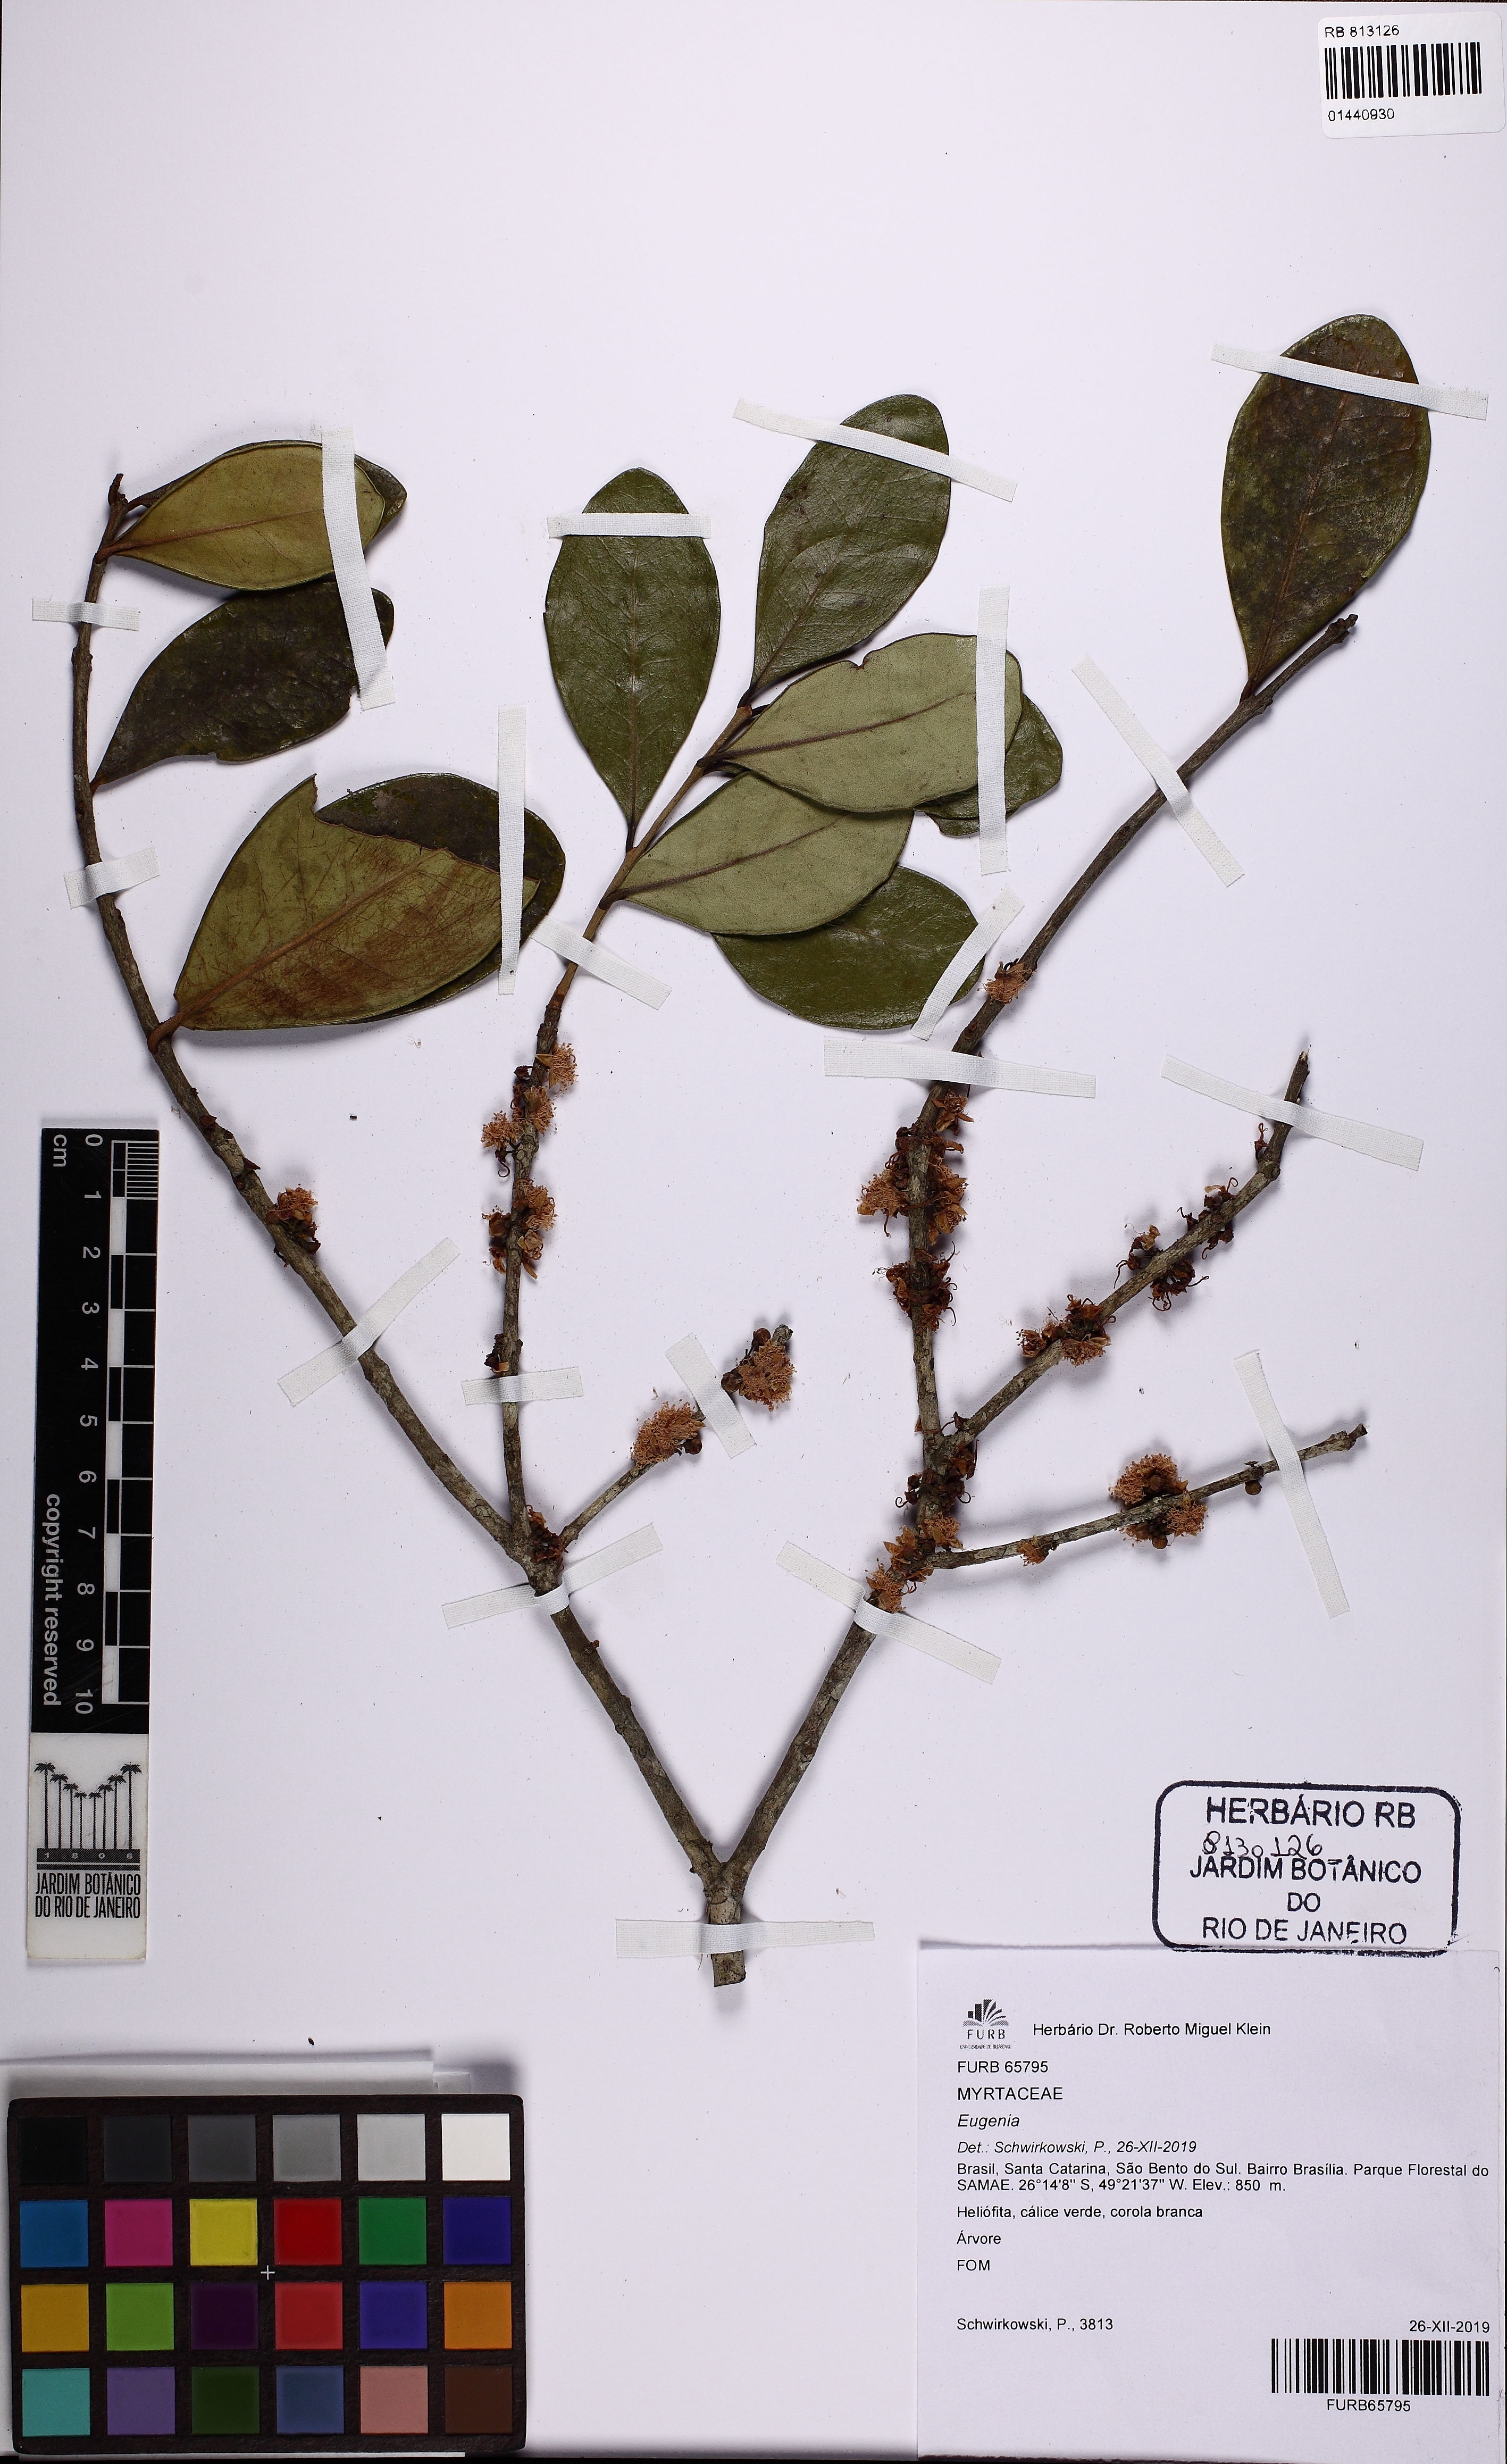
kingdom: Plantae
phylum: Tracheophyta
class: Magnoliopsida
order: Myrtales
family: Myrtaceae
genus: Eugenia
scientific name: Eugenia pluriflora
